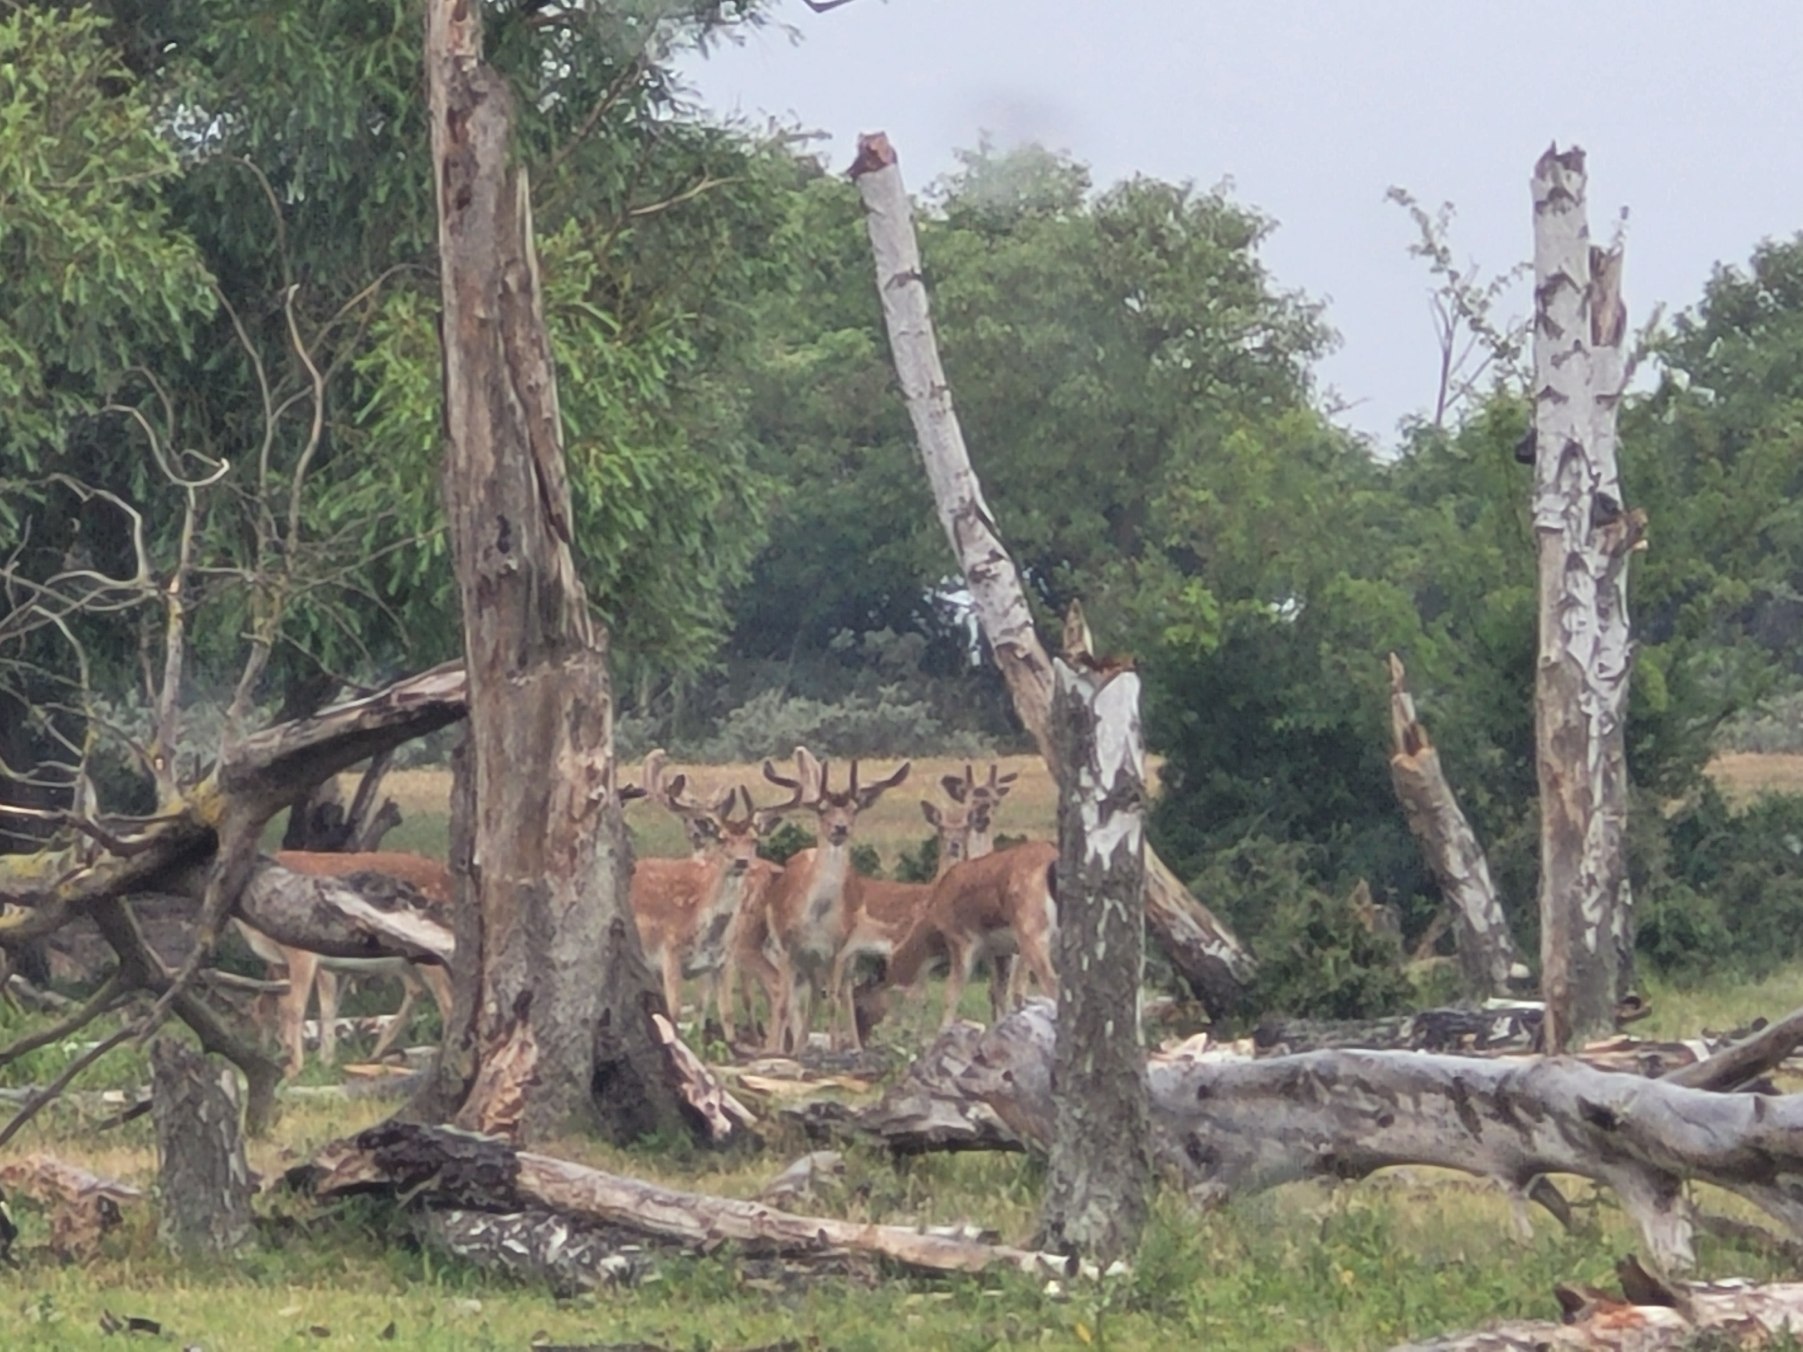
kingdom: Animalia
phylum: Chordata
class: Mammalia
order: Artiodactyla
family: Cervidae
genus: Dama
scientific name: Dama dama
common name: Dådyr
